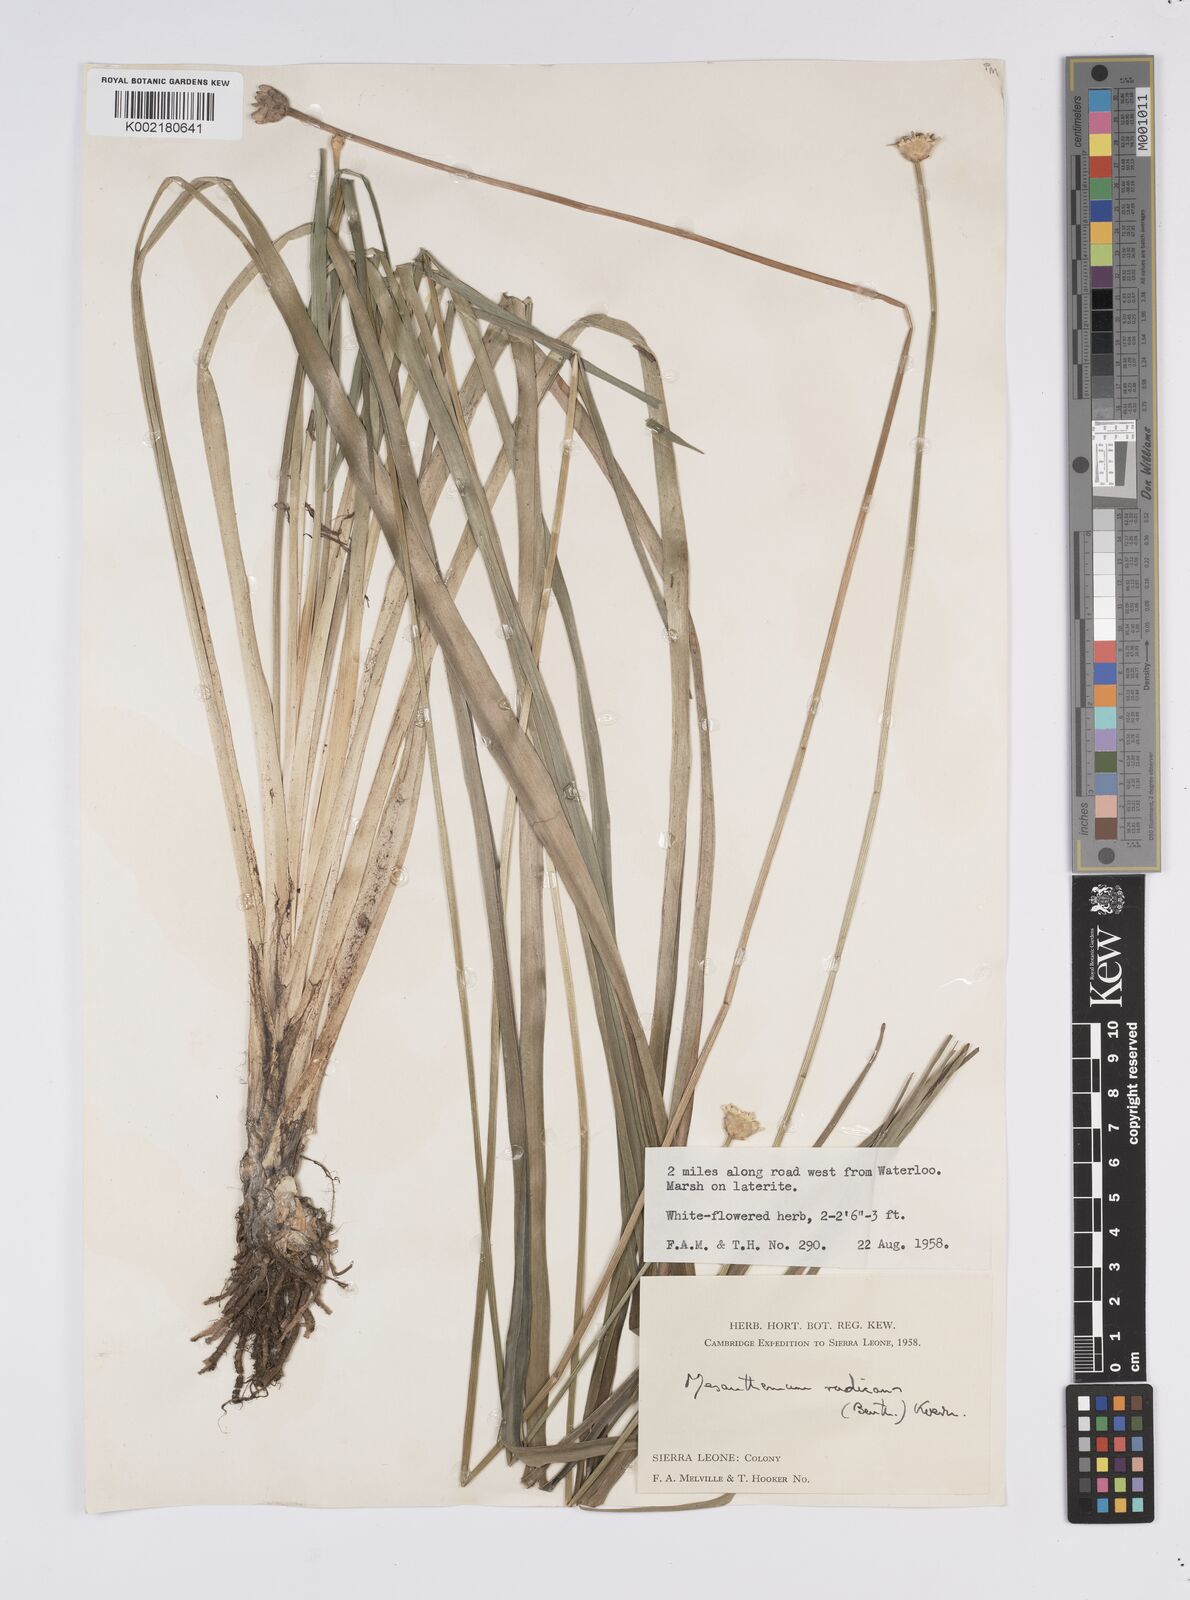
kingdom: Plantae
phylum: Tracheophyta
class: Liliopsida
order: Poales
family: Eriocaulaceae
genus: Mesanthemum
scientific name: Mesanthemum radicans
